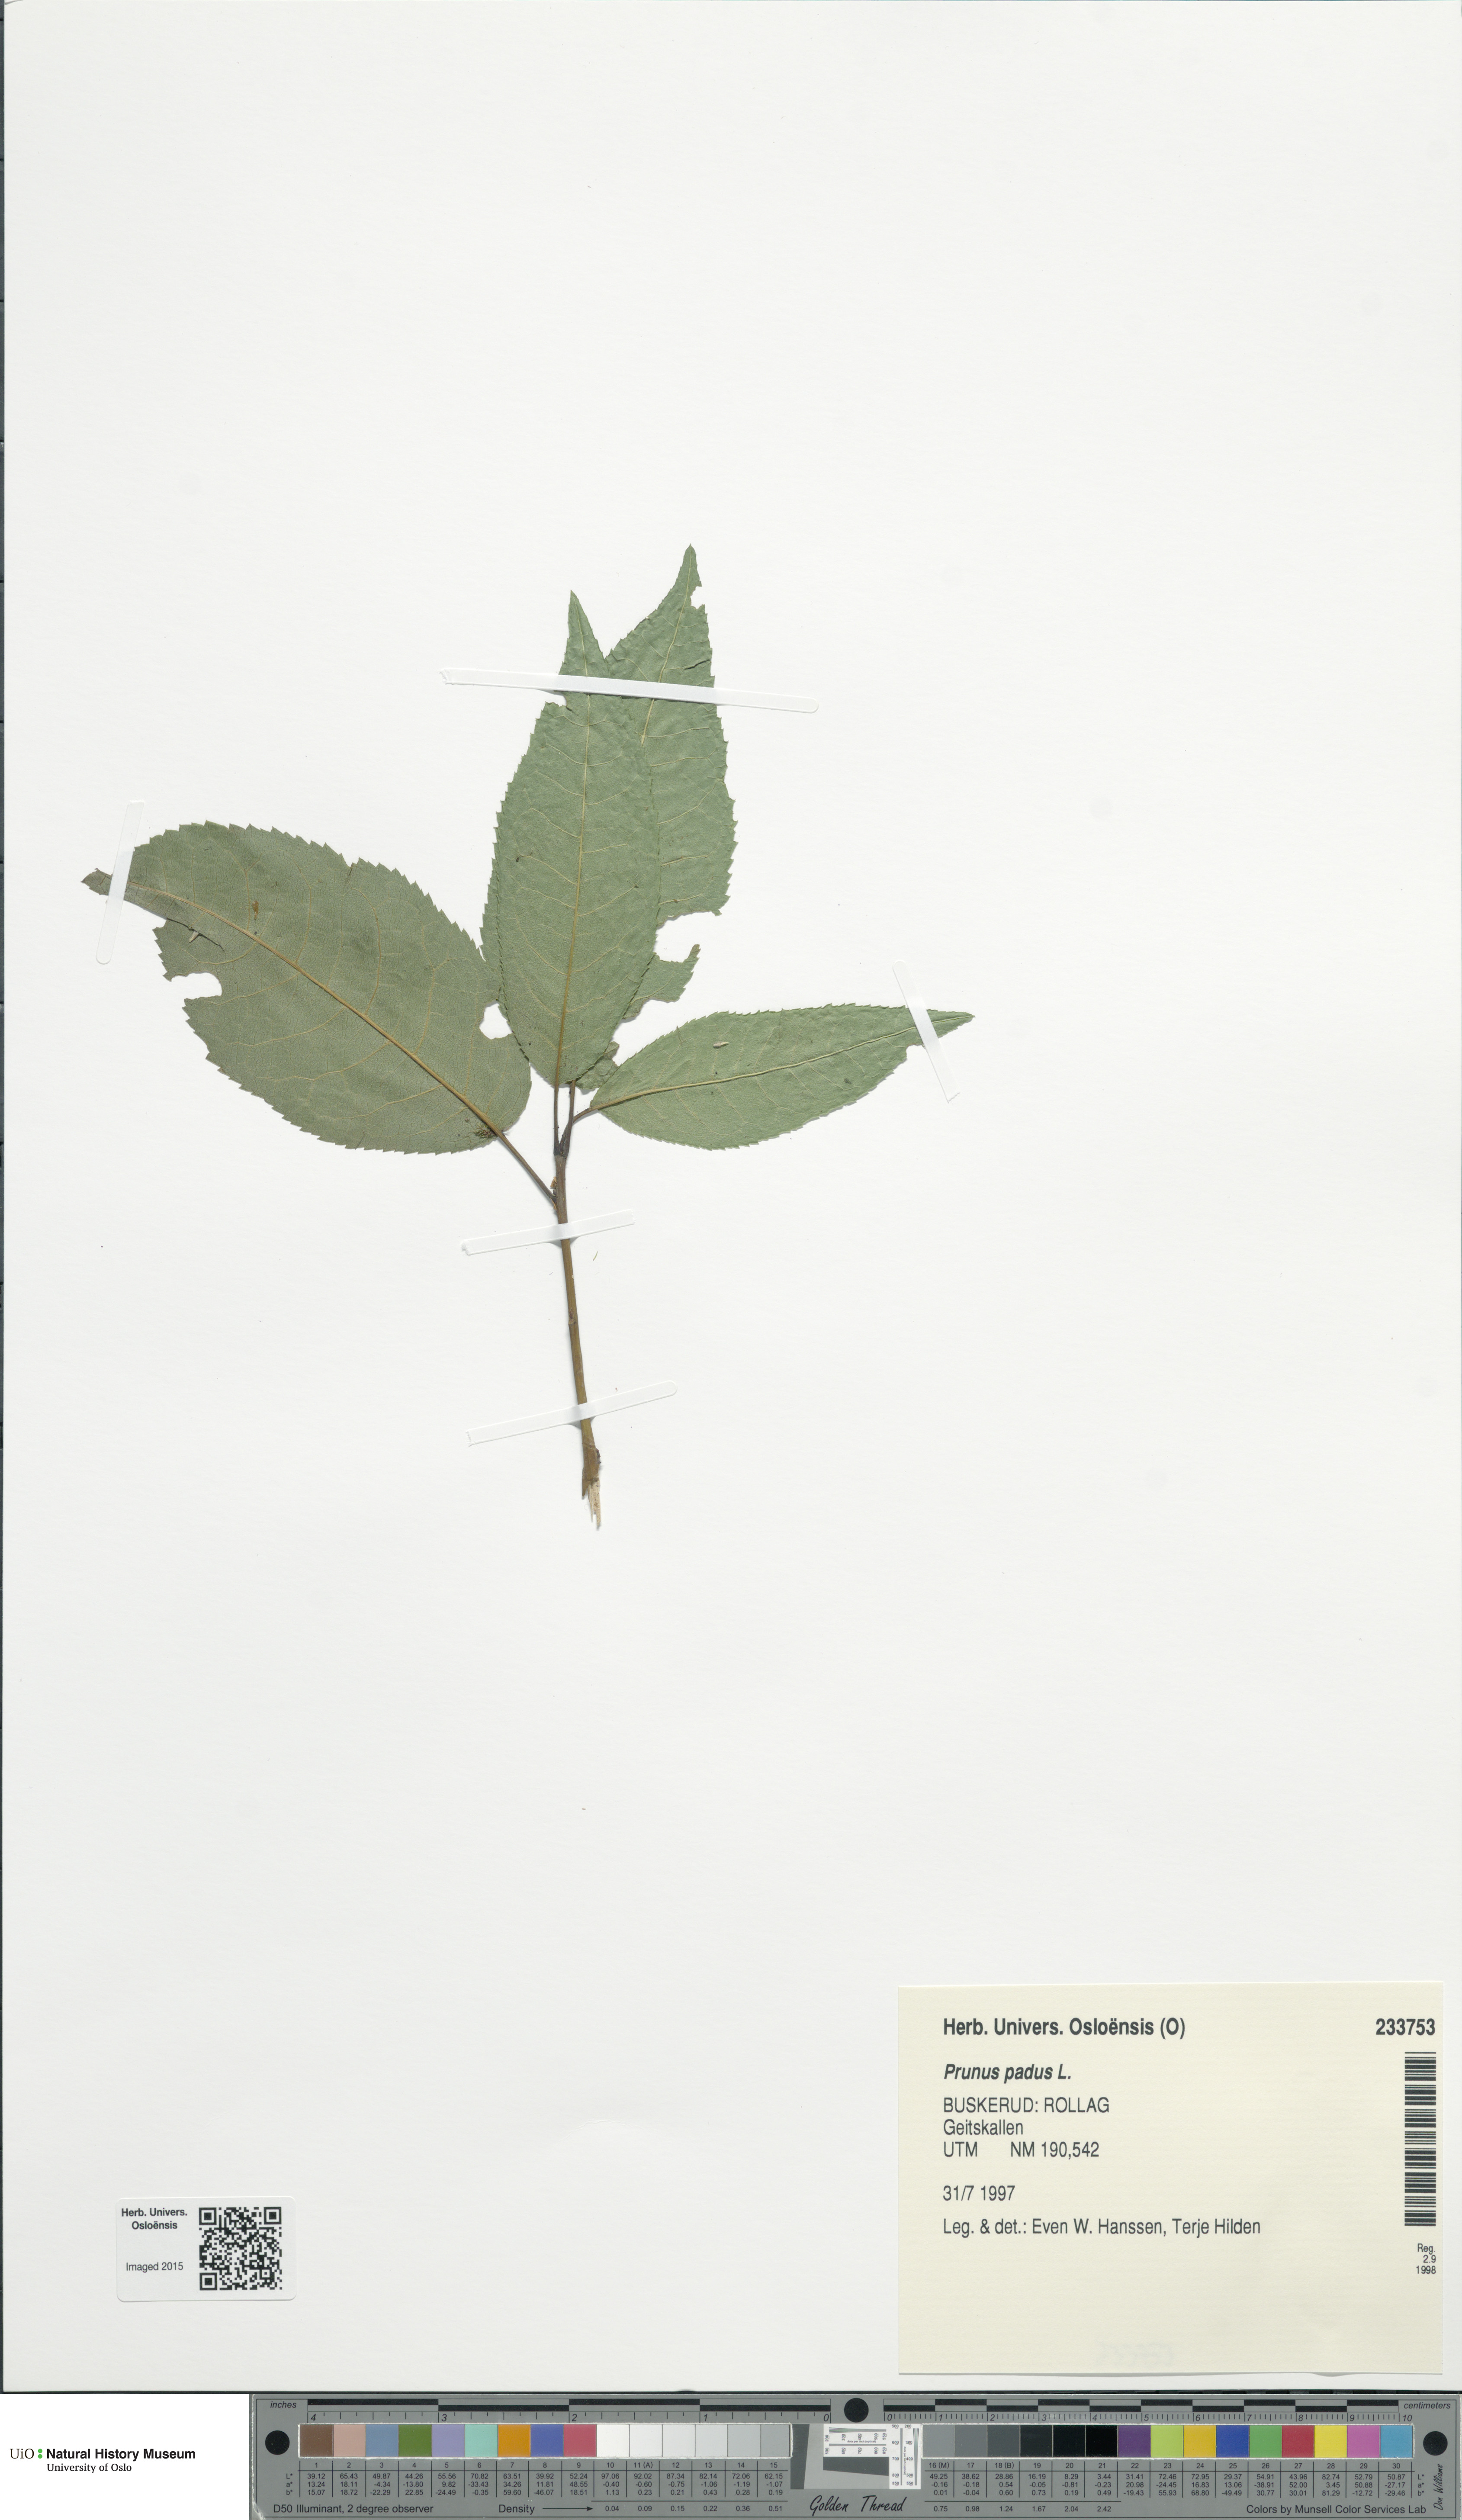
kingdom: Plantae
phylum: Tracheophyta
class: Magnoliopsida
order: Rosales
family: Rosaceae
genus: Prunus
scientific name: Prunus padus
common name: Bird cherry
